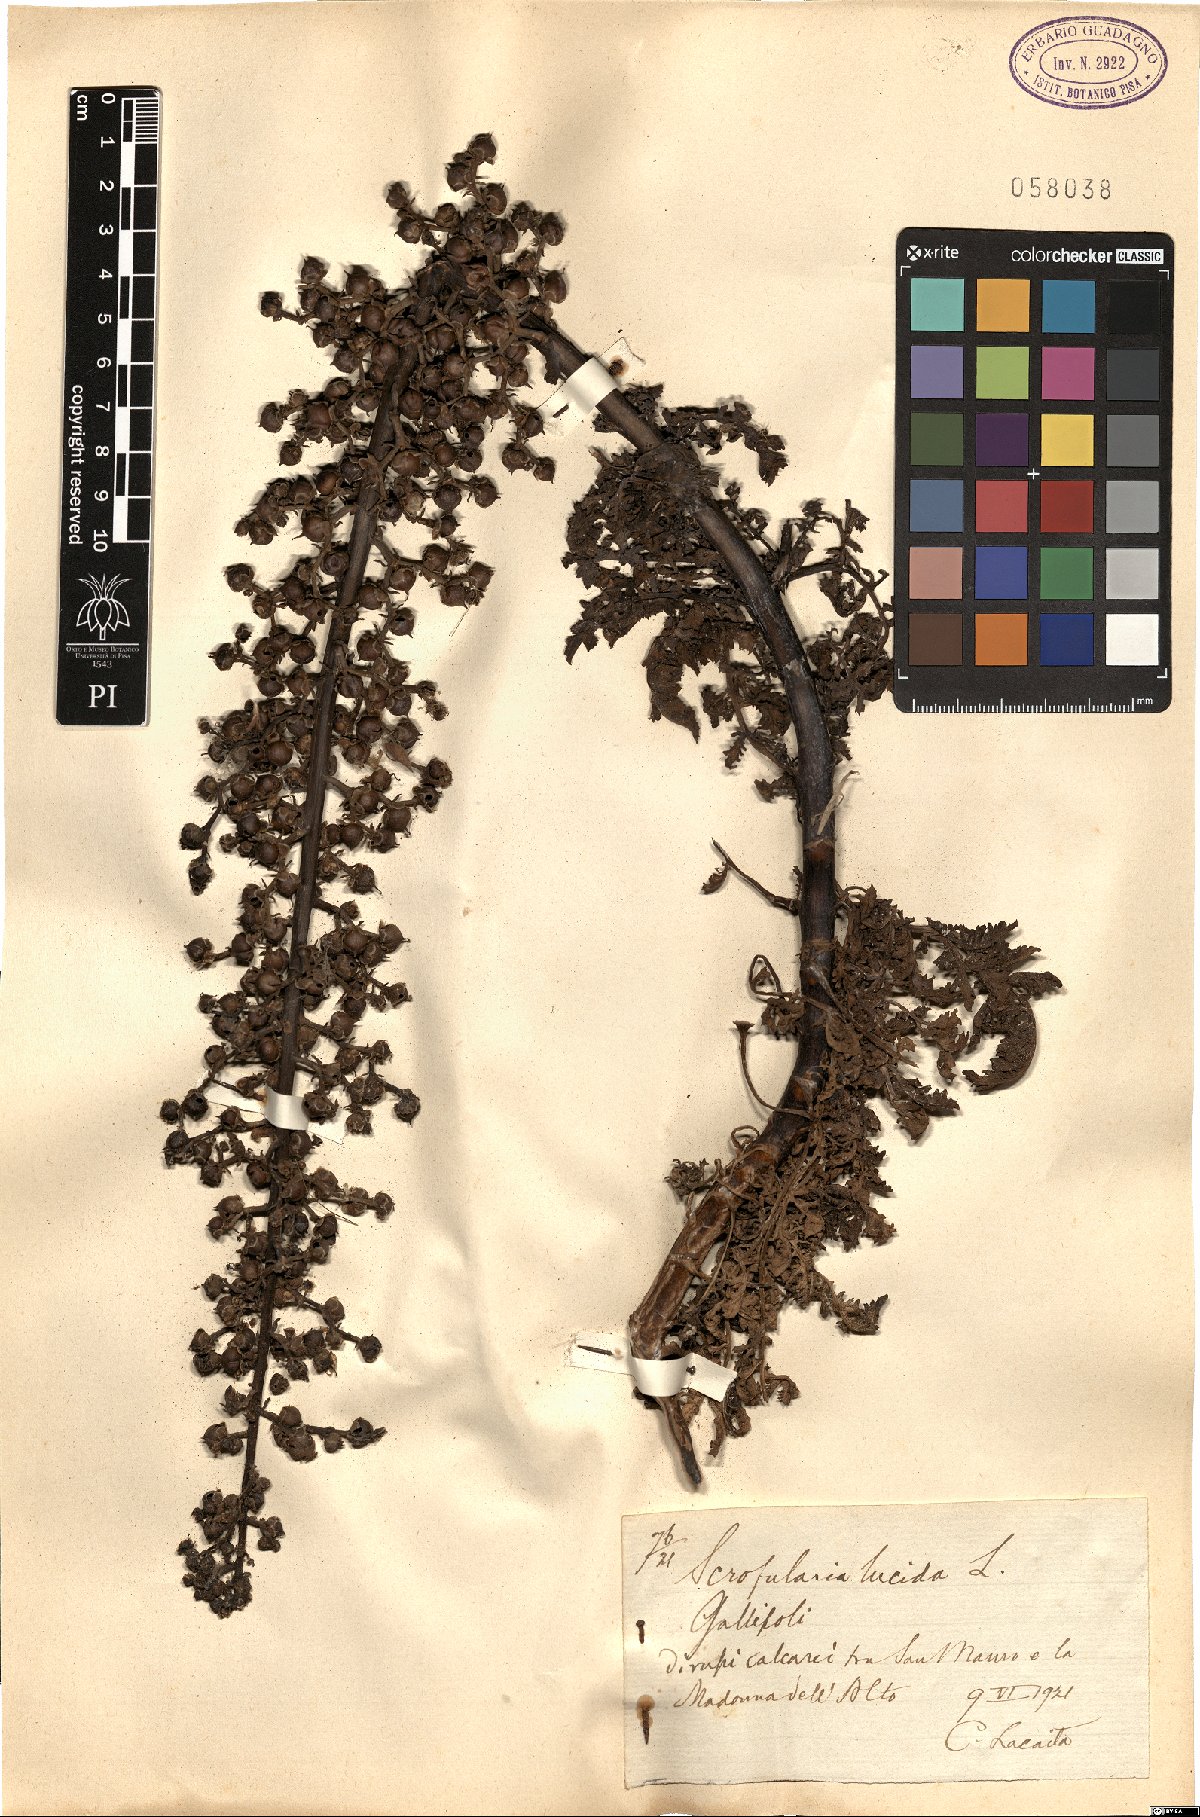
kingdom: Plantae
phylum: Tracheophyta
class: Magnoliopsida
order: Lamiales
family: Scrophulariaceae
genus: Scrophularia
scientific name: Scrophularia lucida
